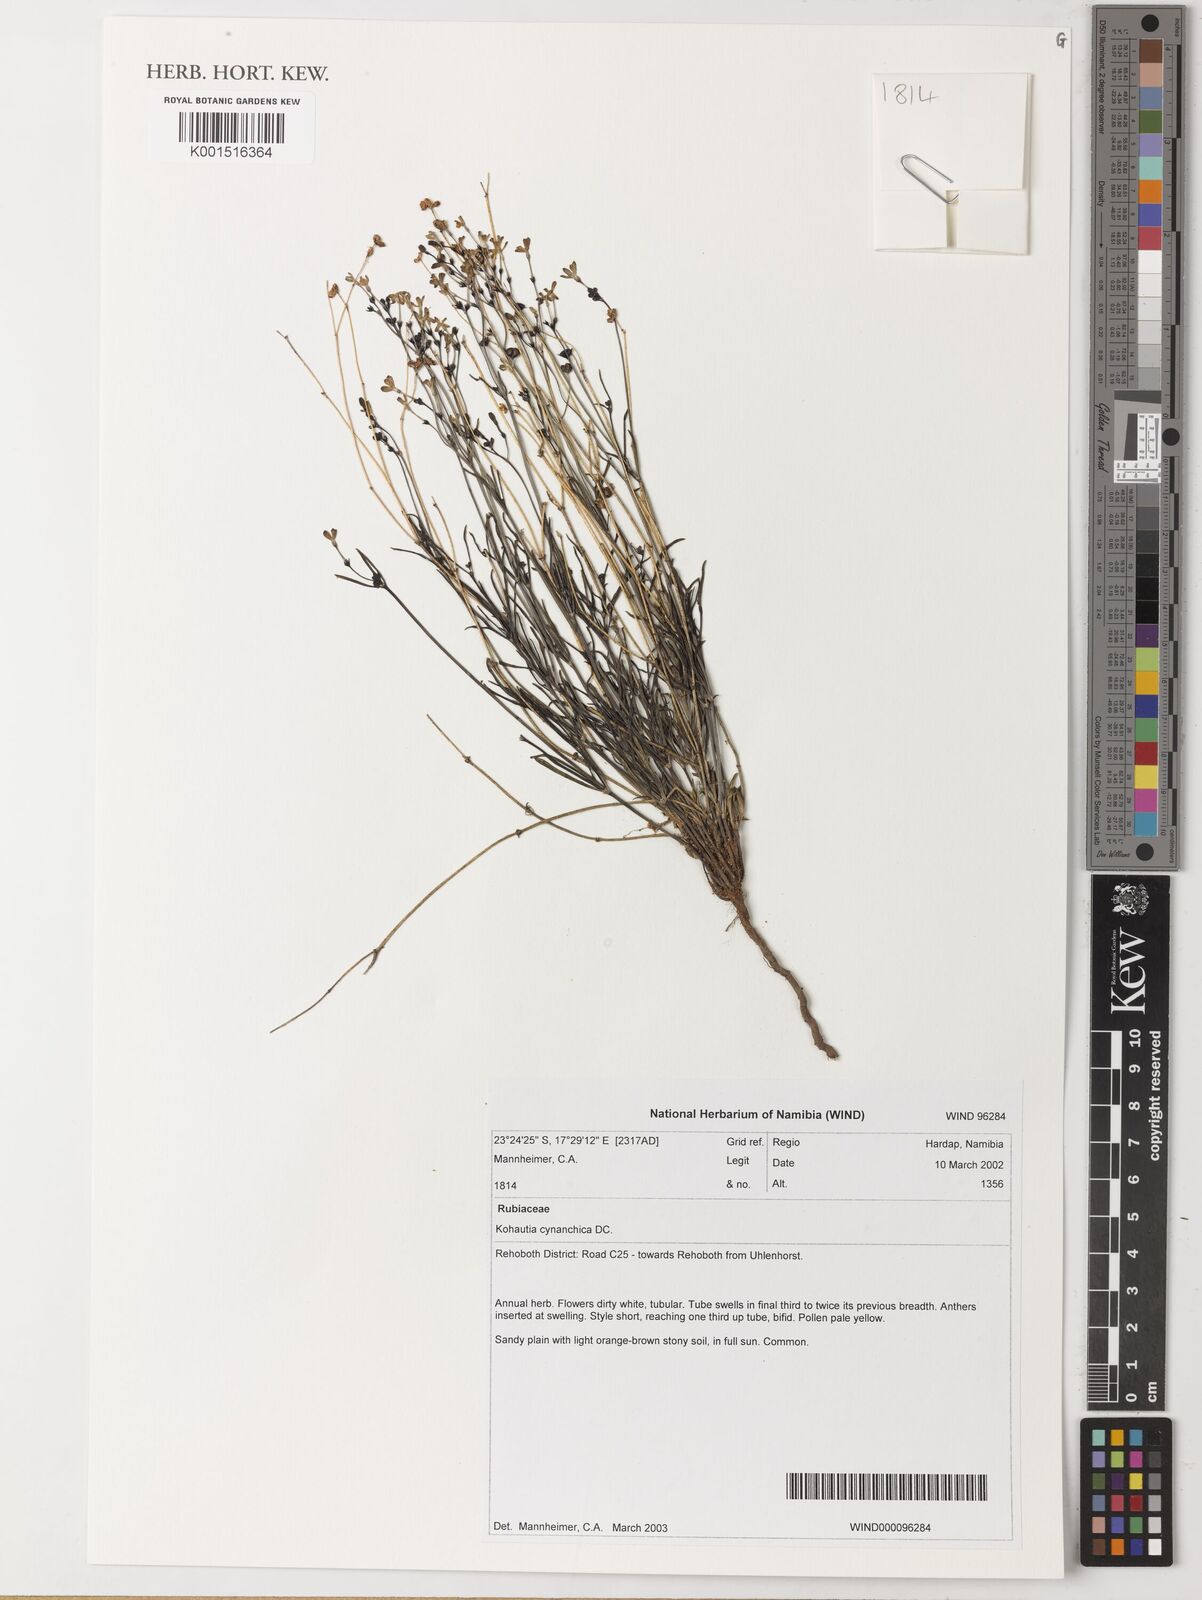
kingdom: Plantae
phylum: Tracheophyta
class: Magnoliopsida
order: Gentianales
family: Rubiaceae
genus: Kohautia
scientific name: Kohautia cynanchica
